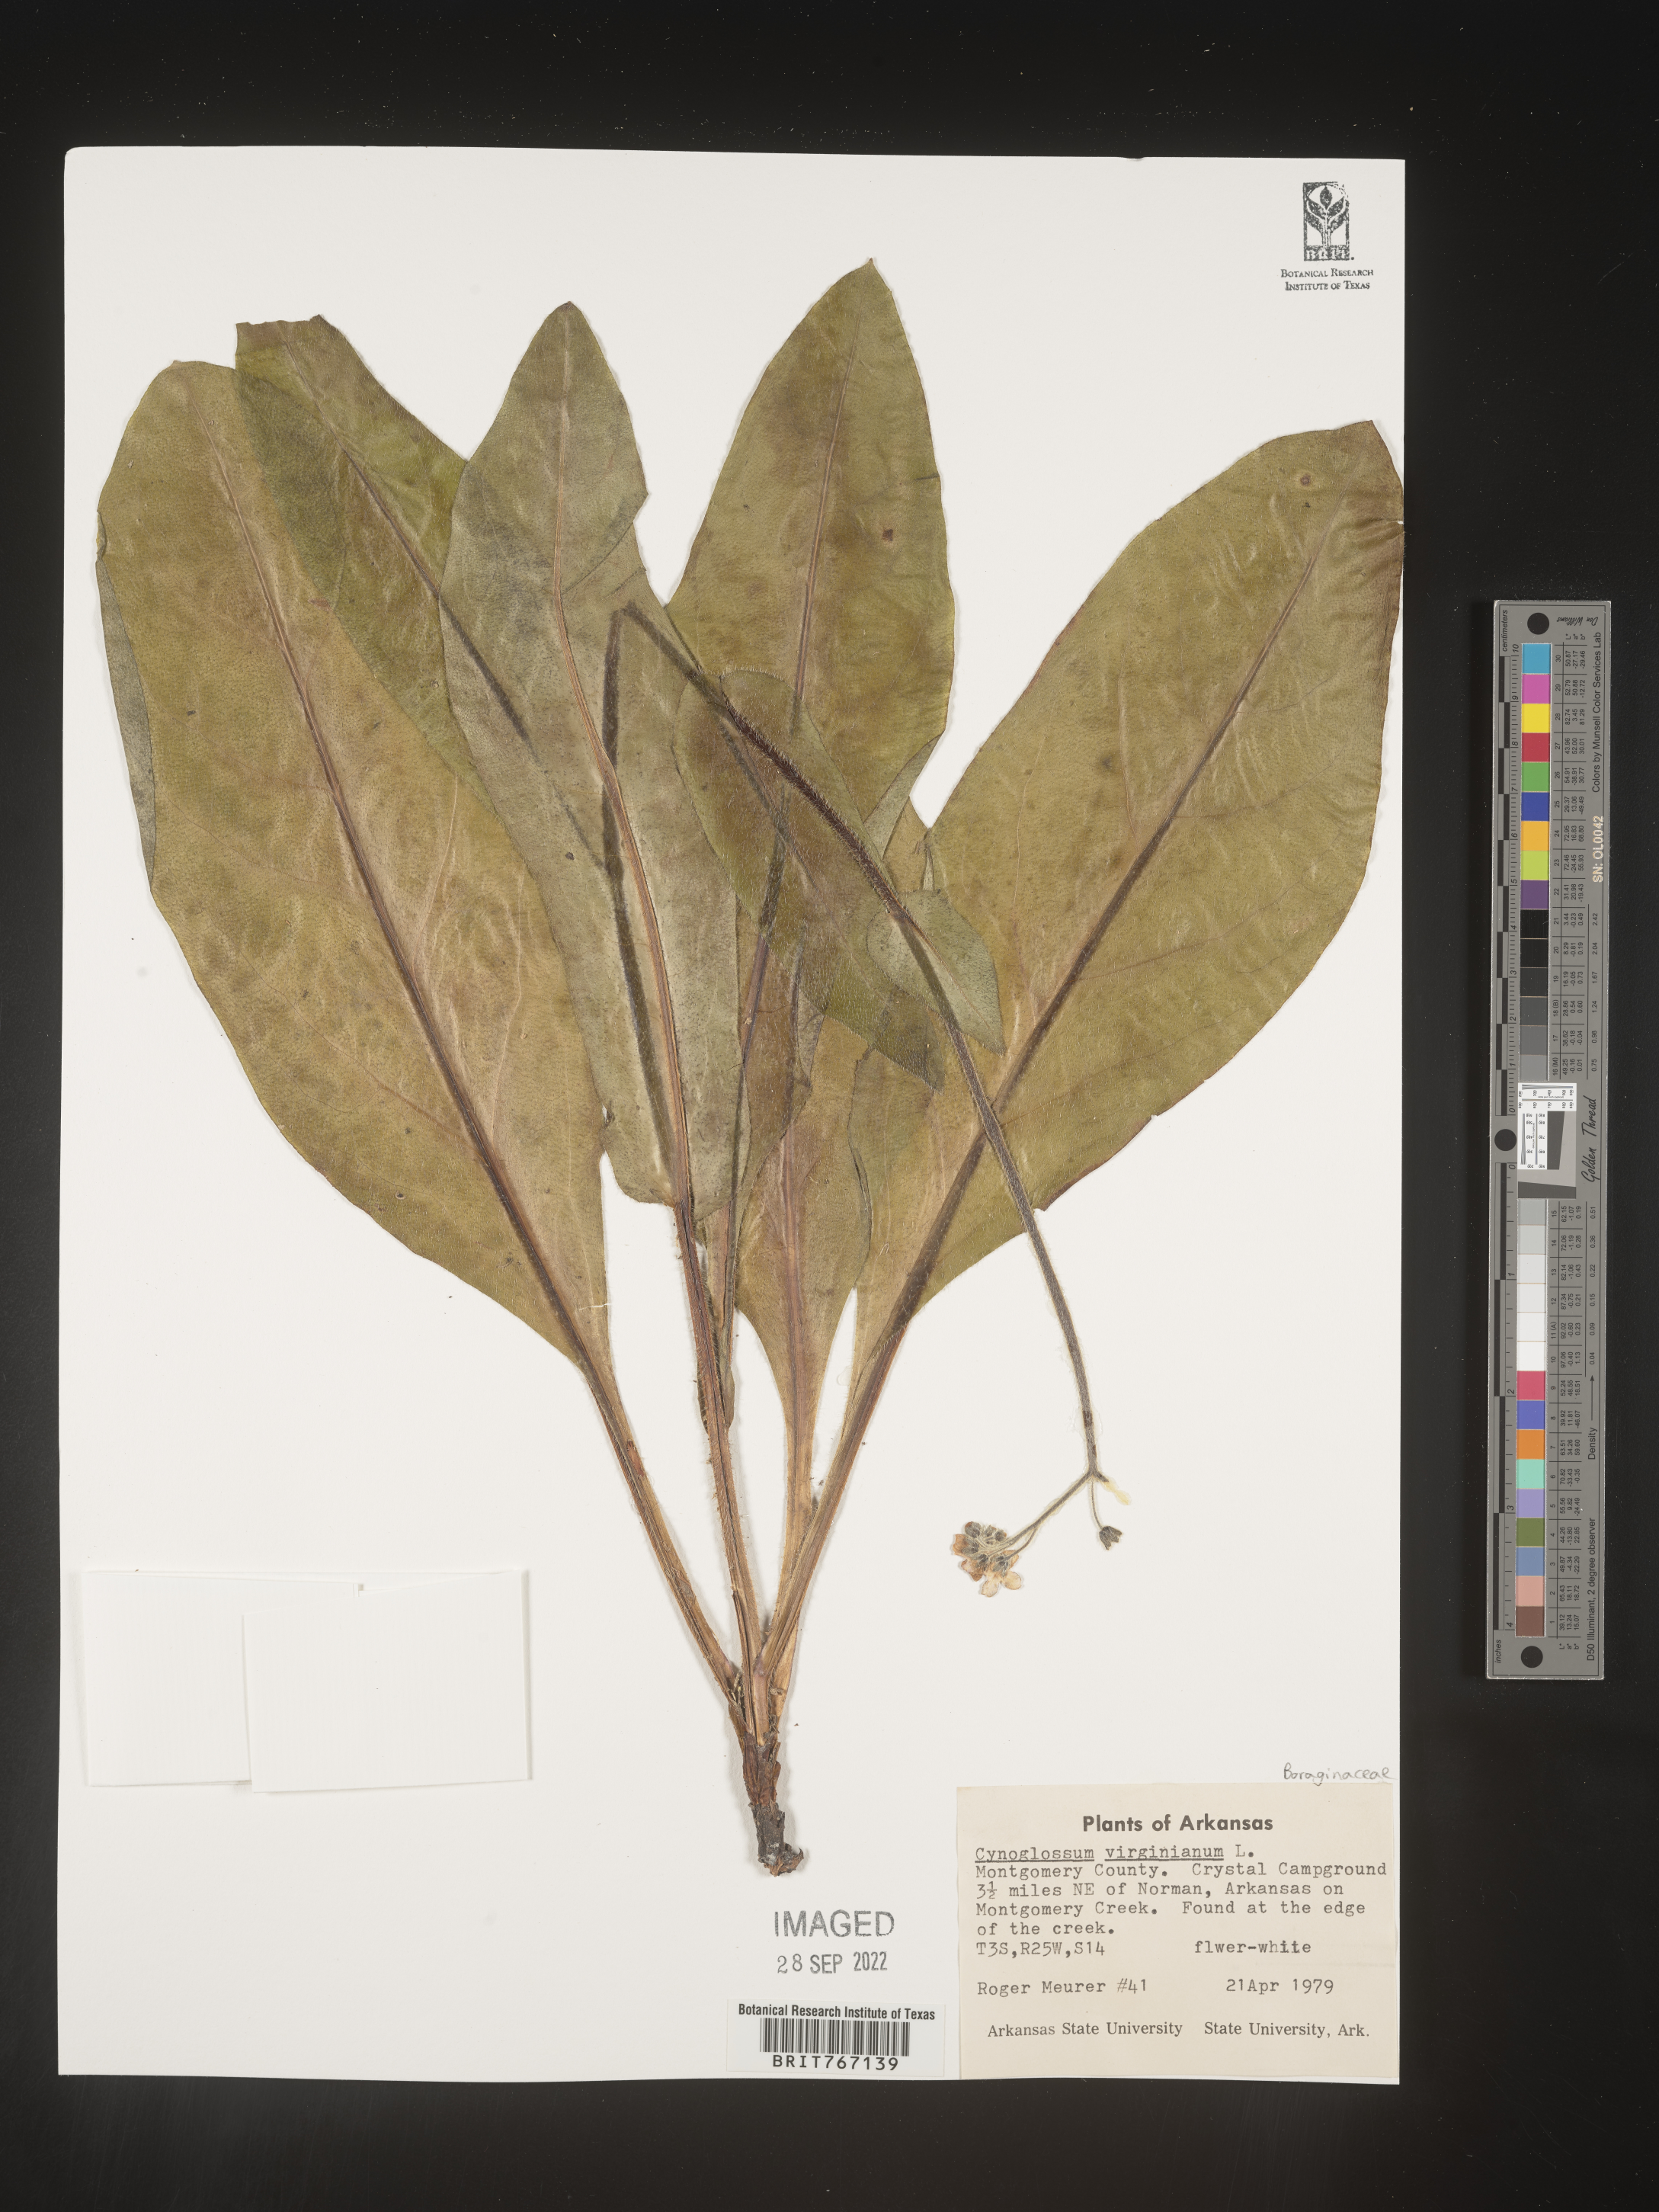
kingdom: Plantae
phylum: Tracheophyta
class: Magnoliopsida
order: Boraginales
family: Boraginaceae
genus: Andersonglossum
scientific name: Andersonglossum virginianum
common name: Wild comfrey
